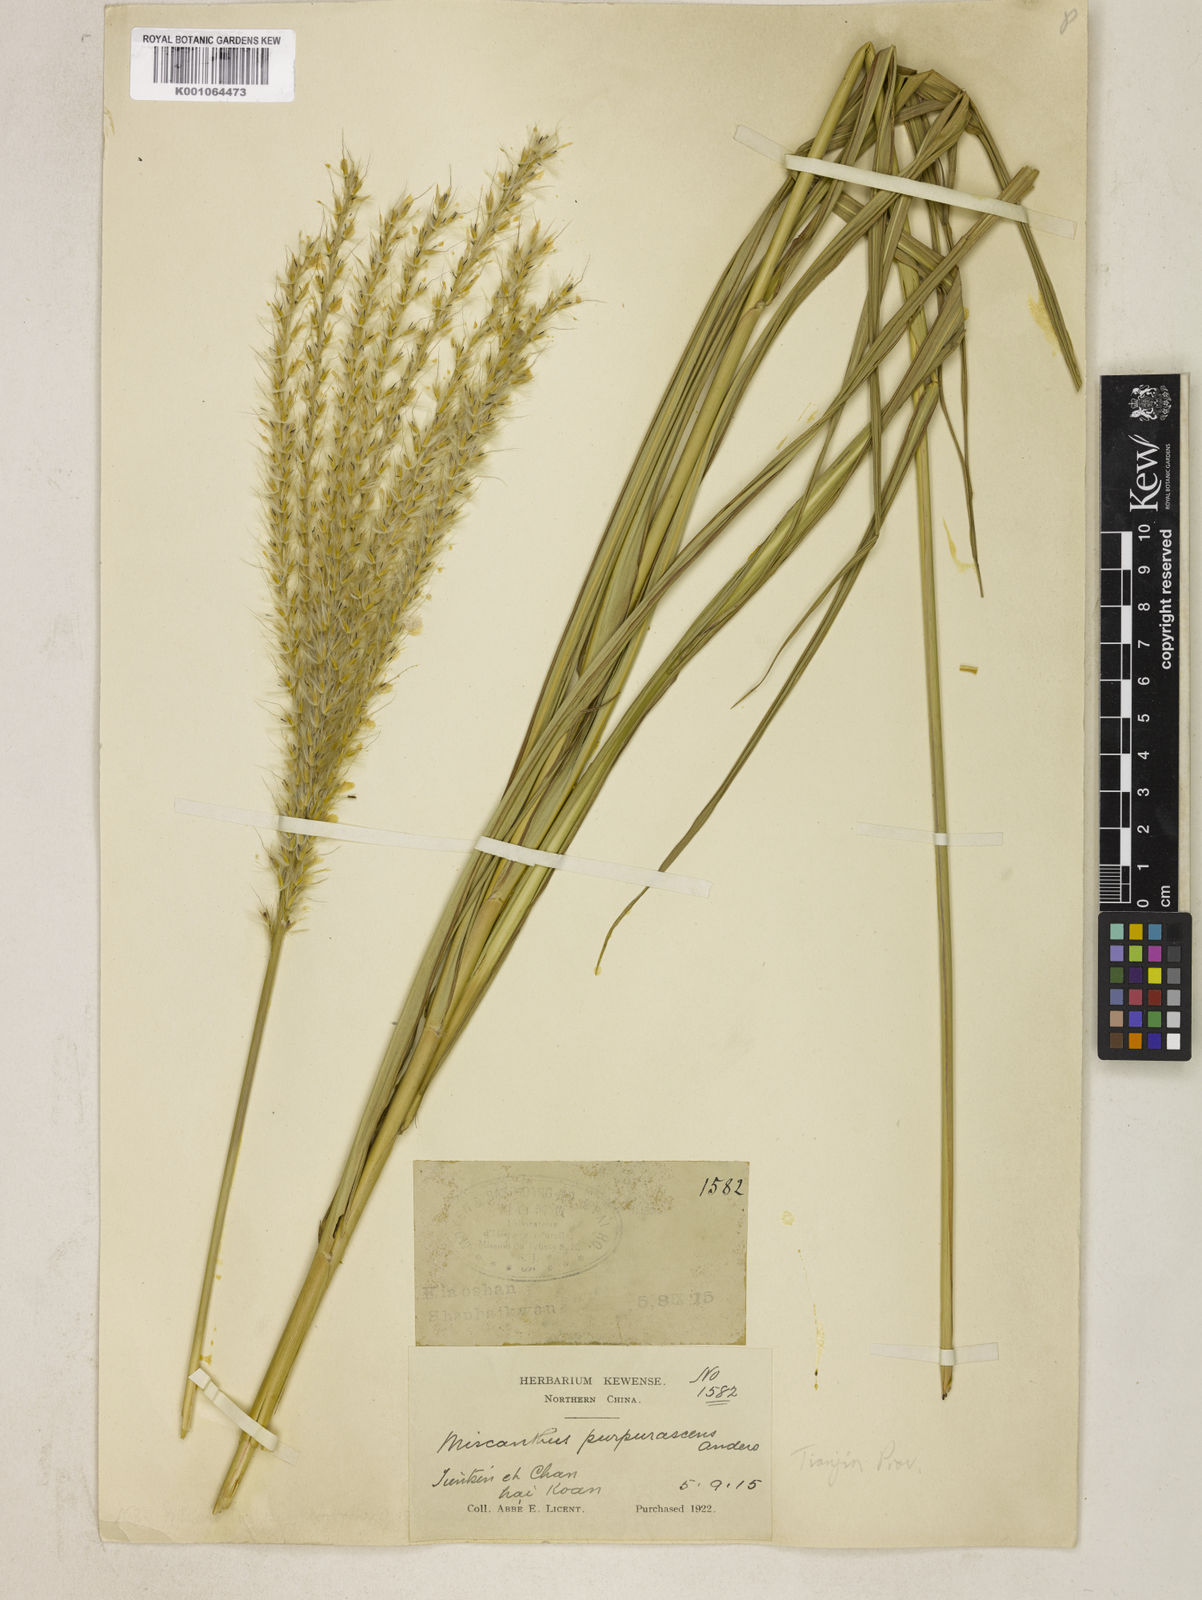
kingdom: Plantae
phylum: Tracheophyta
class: Liliopsida
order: Poales
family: Poaceae
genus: Miscanthus
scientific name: Miscanthus sinensis
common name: Chinese silvergrass
